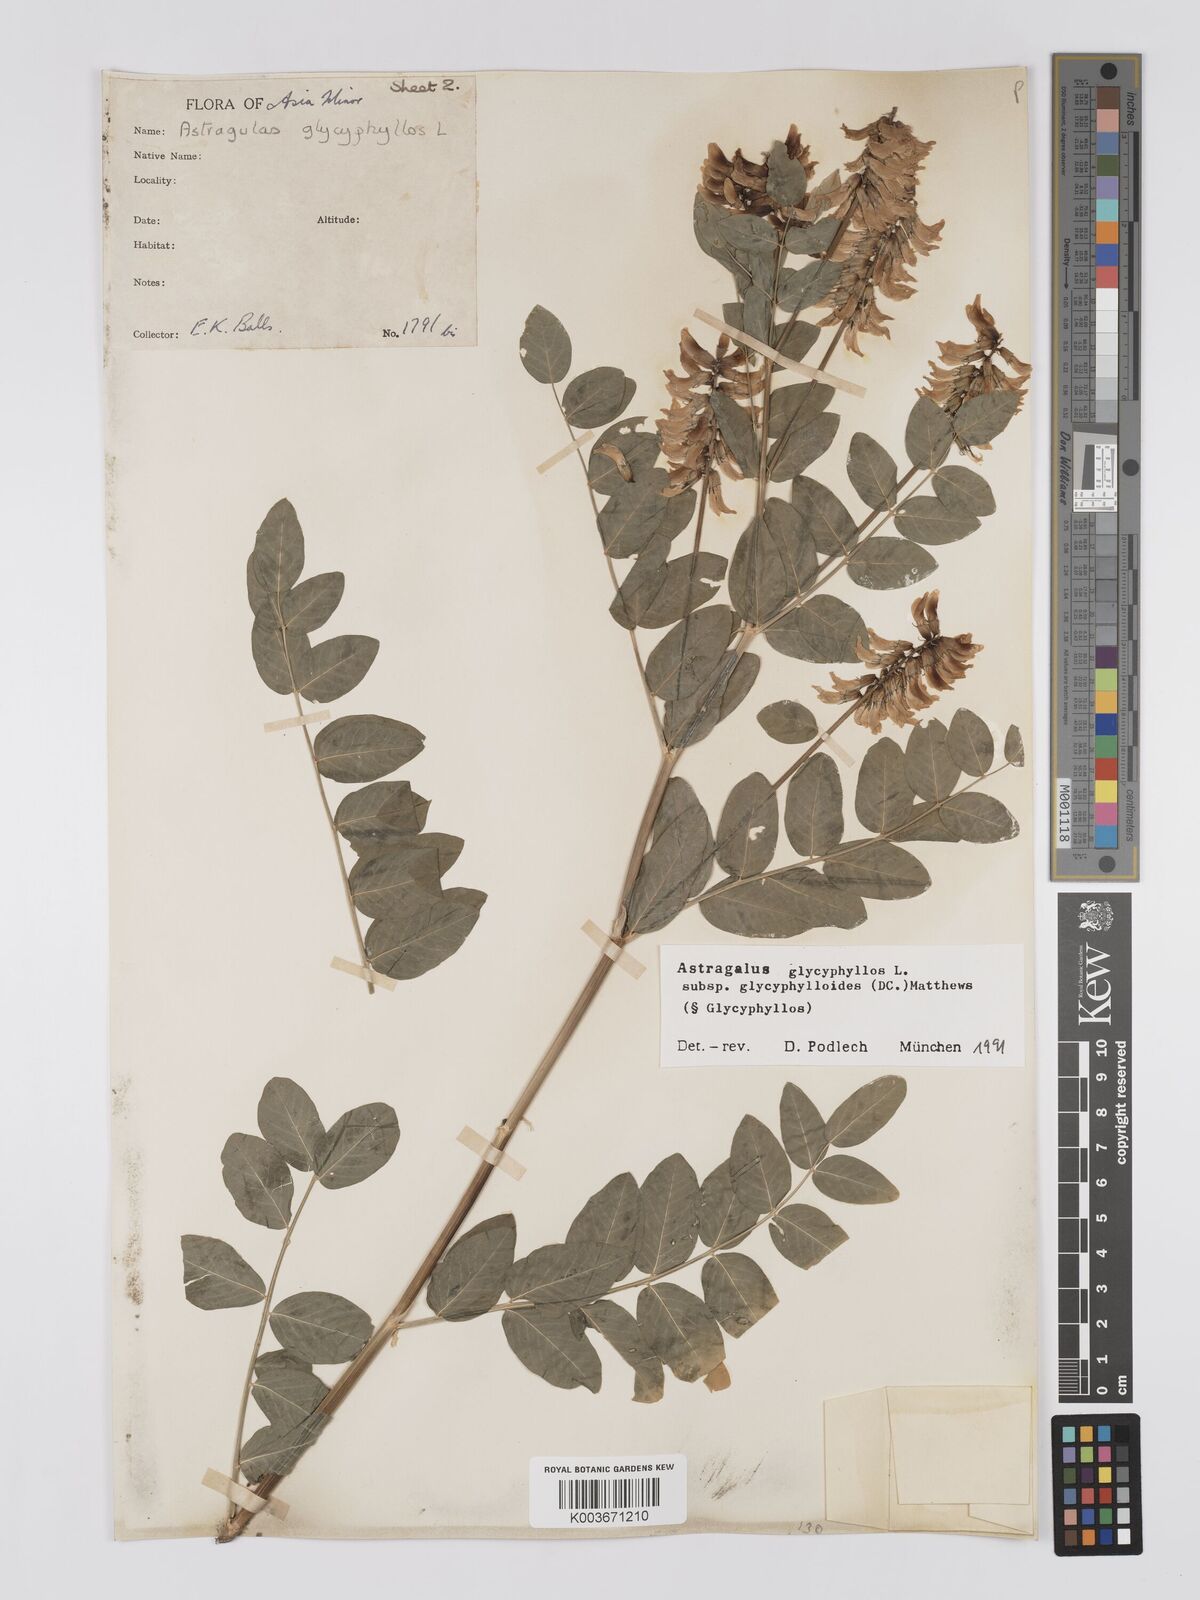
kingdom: Plantae
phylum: Tracheophyta
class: Magnoliopsida
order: Fabales
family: Fabaceae
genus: Astragalus
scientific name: Astragalus glycyphyllos
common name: Wild liquorice
